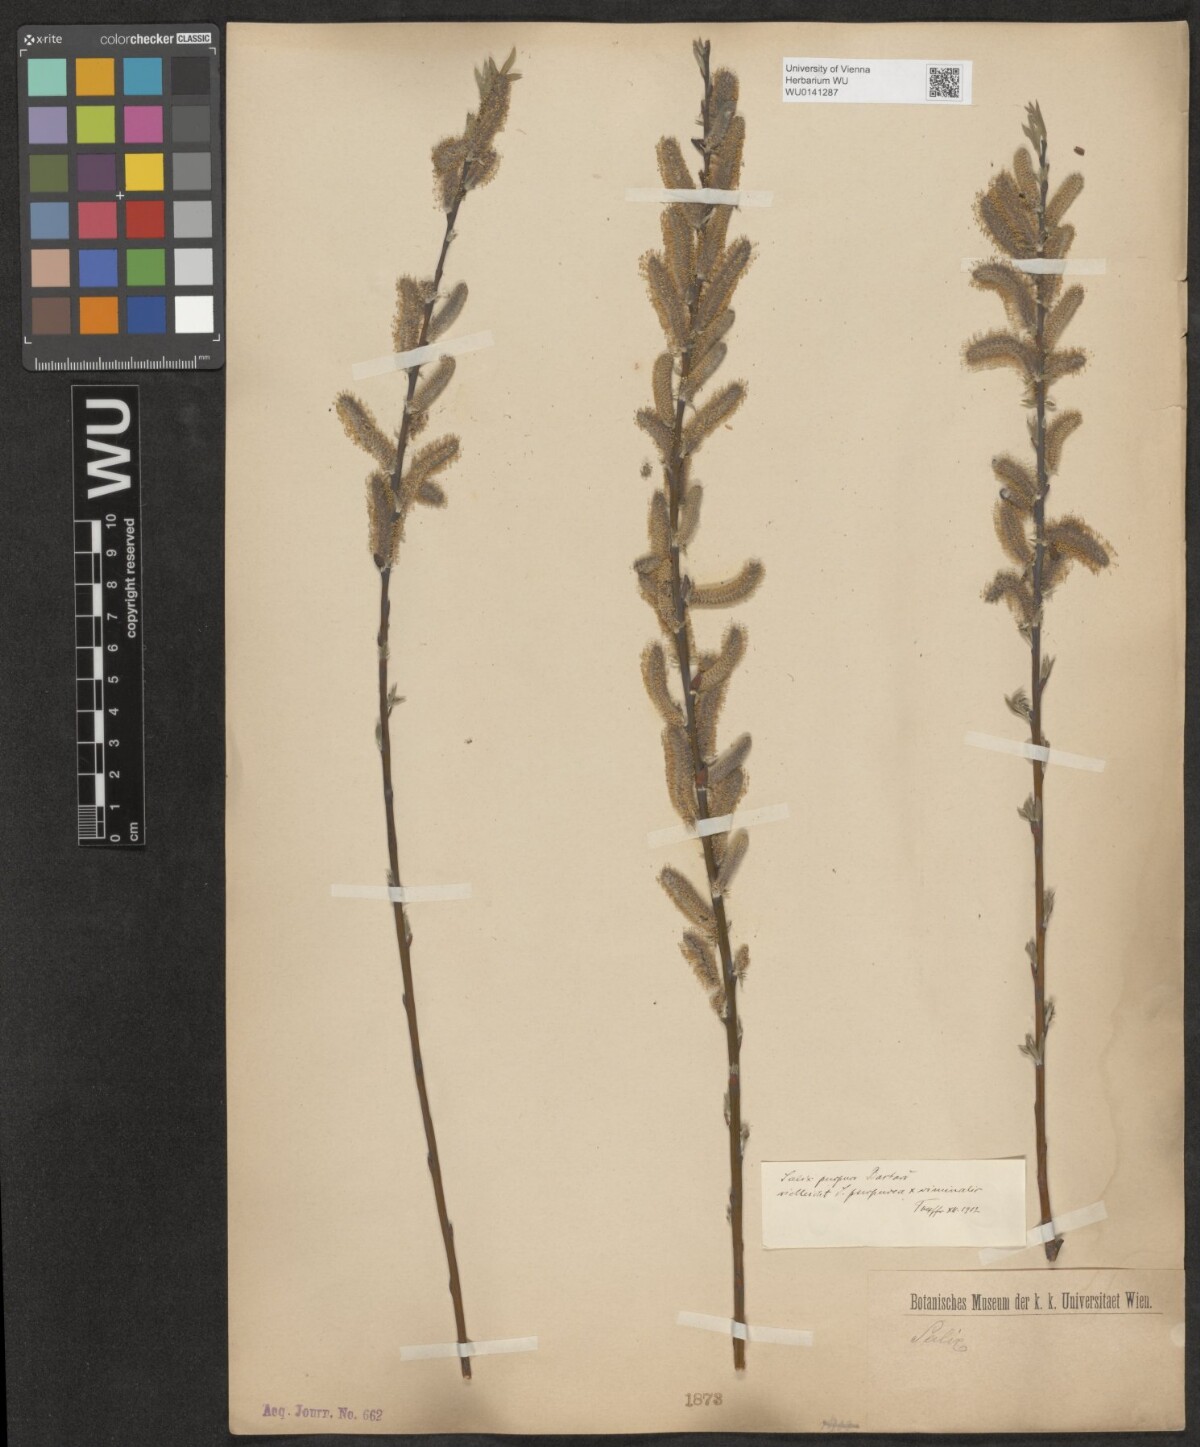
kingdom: Plantae
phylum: Tracheophyta
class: Magnoliopsida
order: Malpighiales
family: Salicaceae
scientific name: Salicaceae
